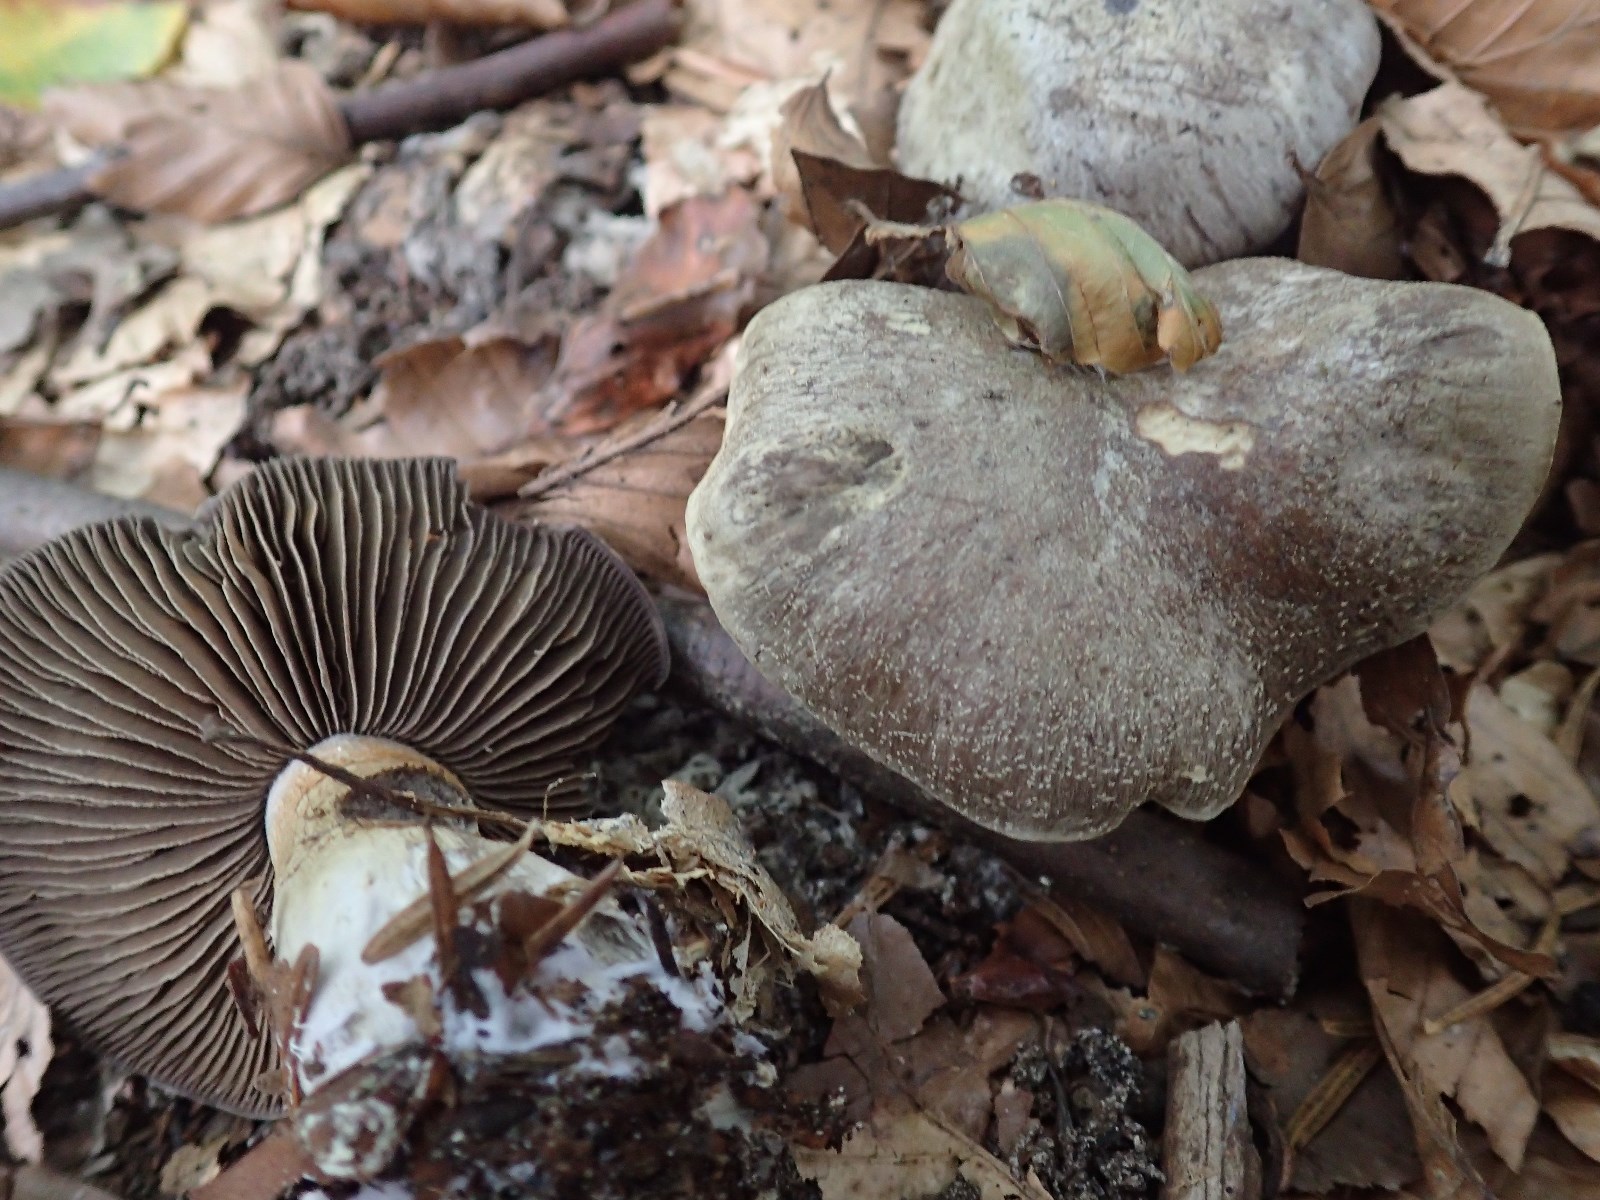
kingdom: Fungi
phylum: Basidiomycota
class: Agaricomycetes
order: Agaricales
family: Cortinariaceae
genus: Cortinarius
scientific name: Cortinarius
